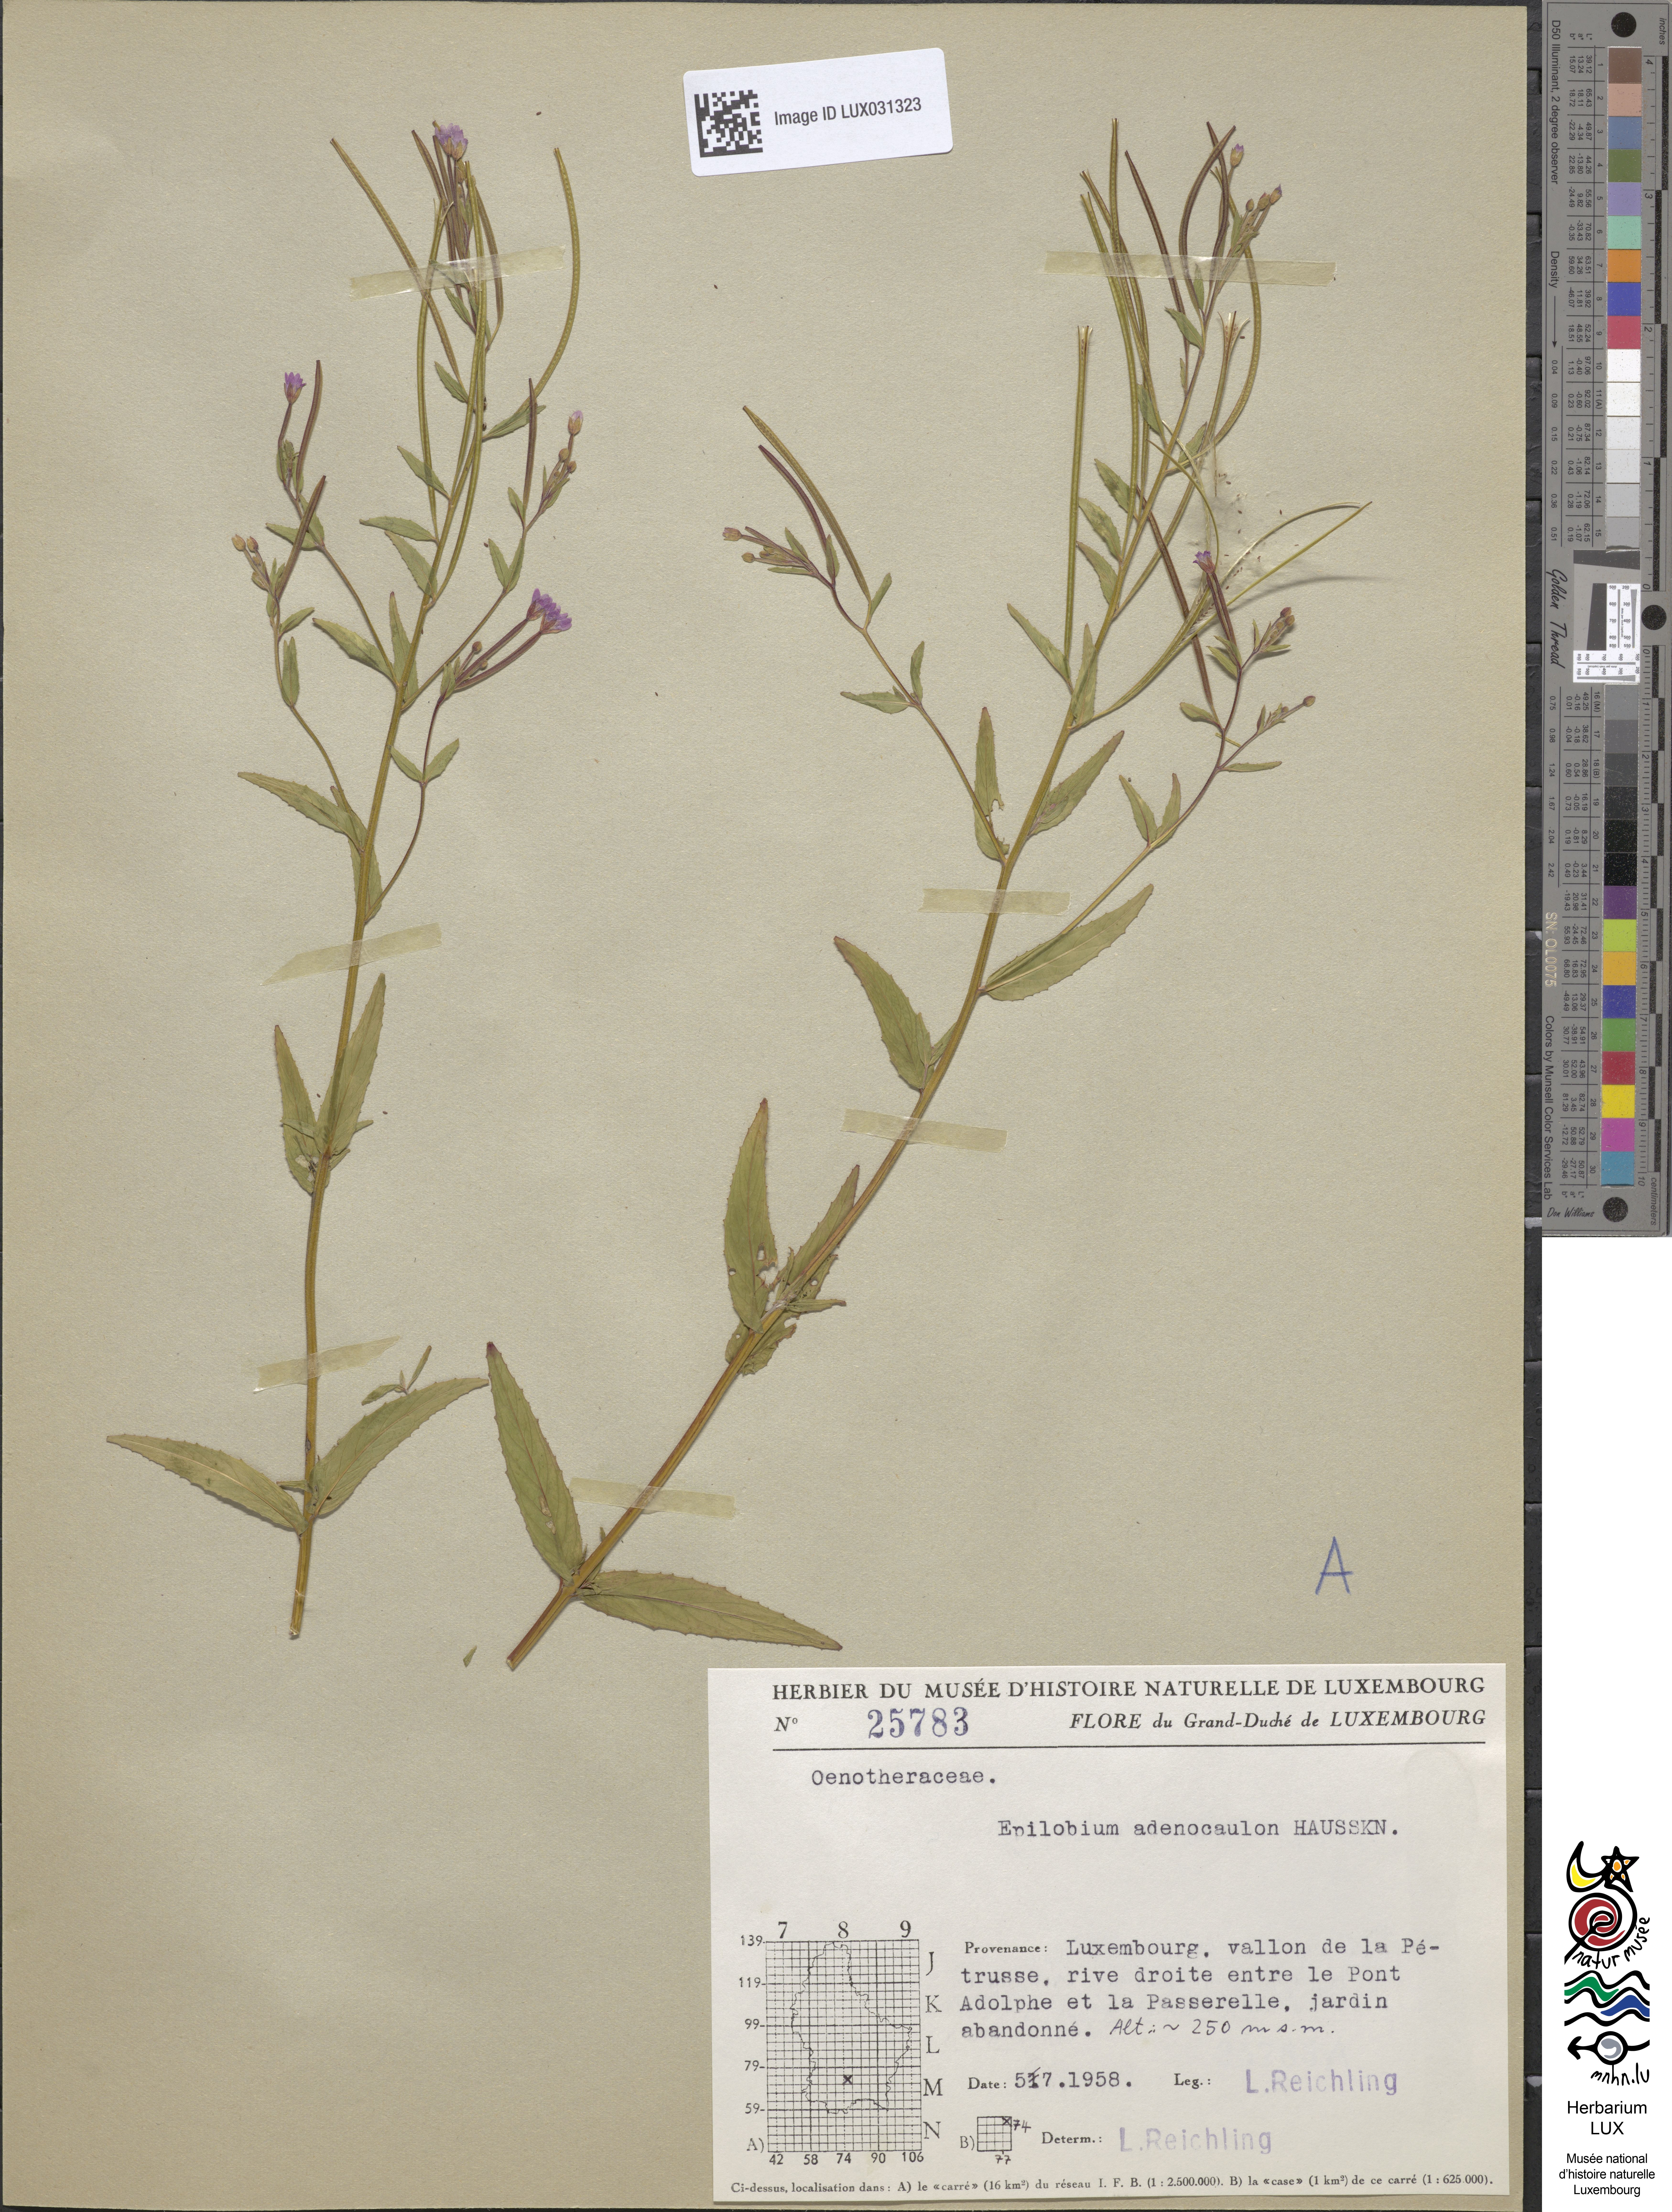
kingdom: Plantae
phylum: Tracheophyta
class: Magnoliopsida
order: Myrtales
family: Onagraceae
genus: Epilobium
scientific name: Epilobium ciliatum
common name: American willowherb
